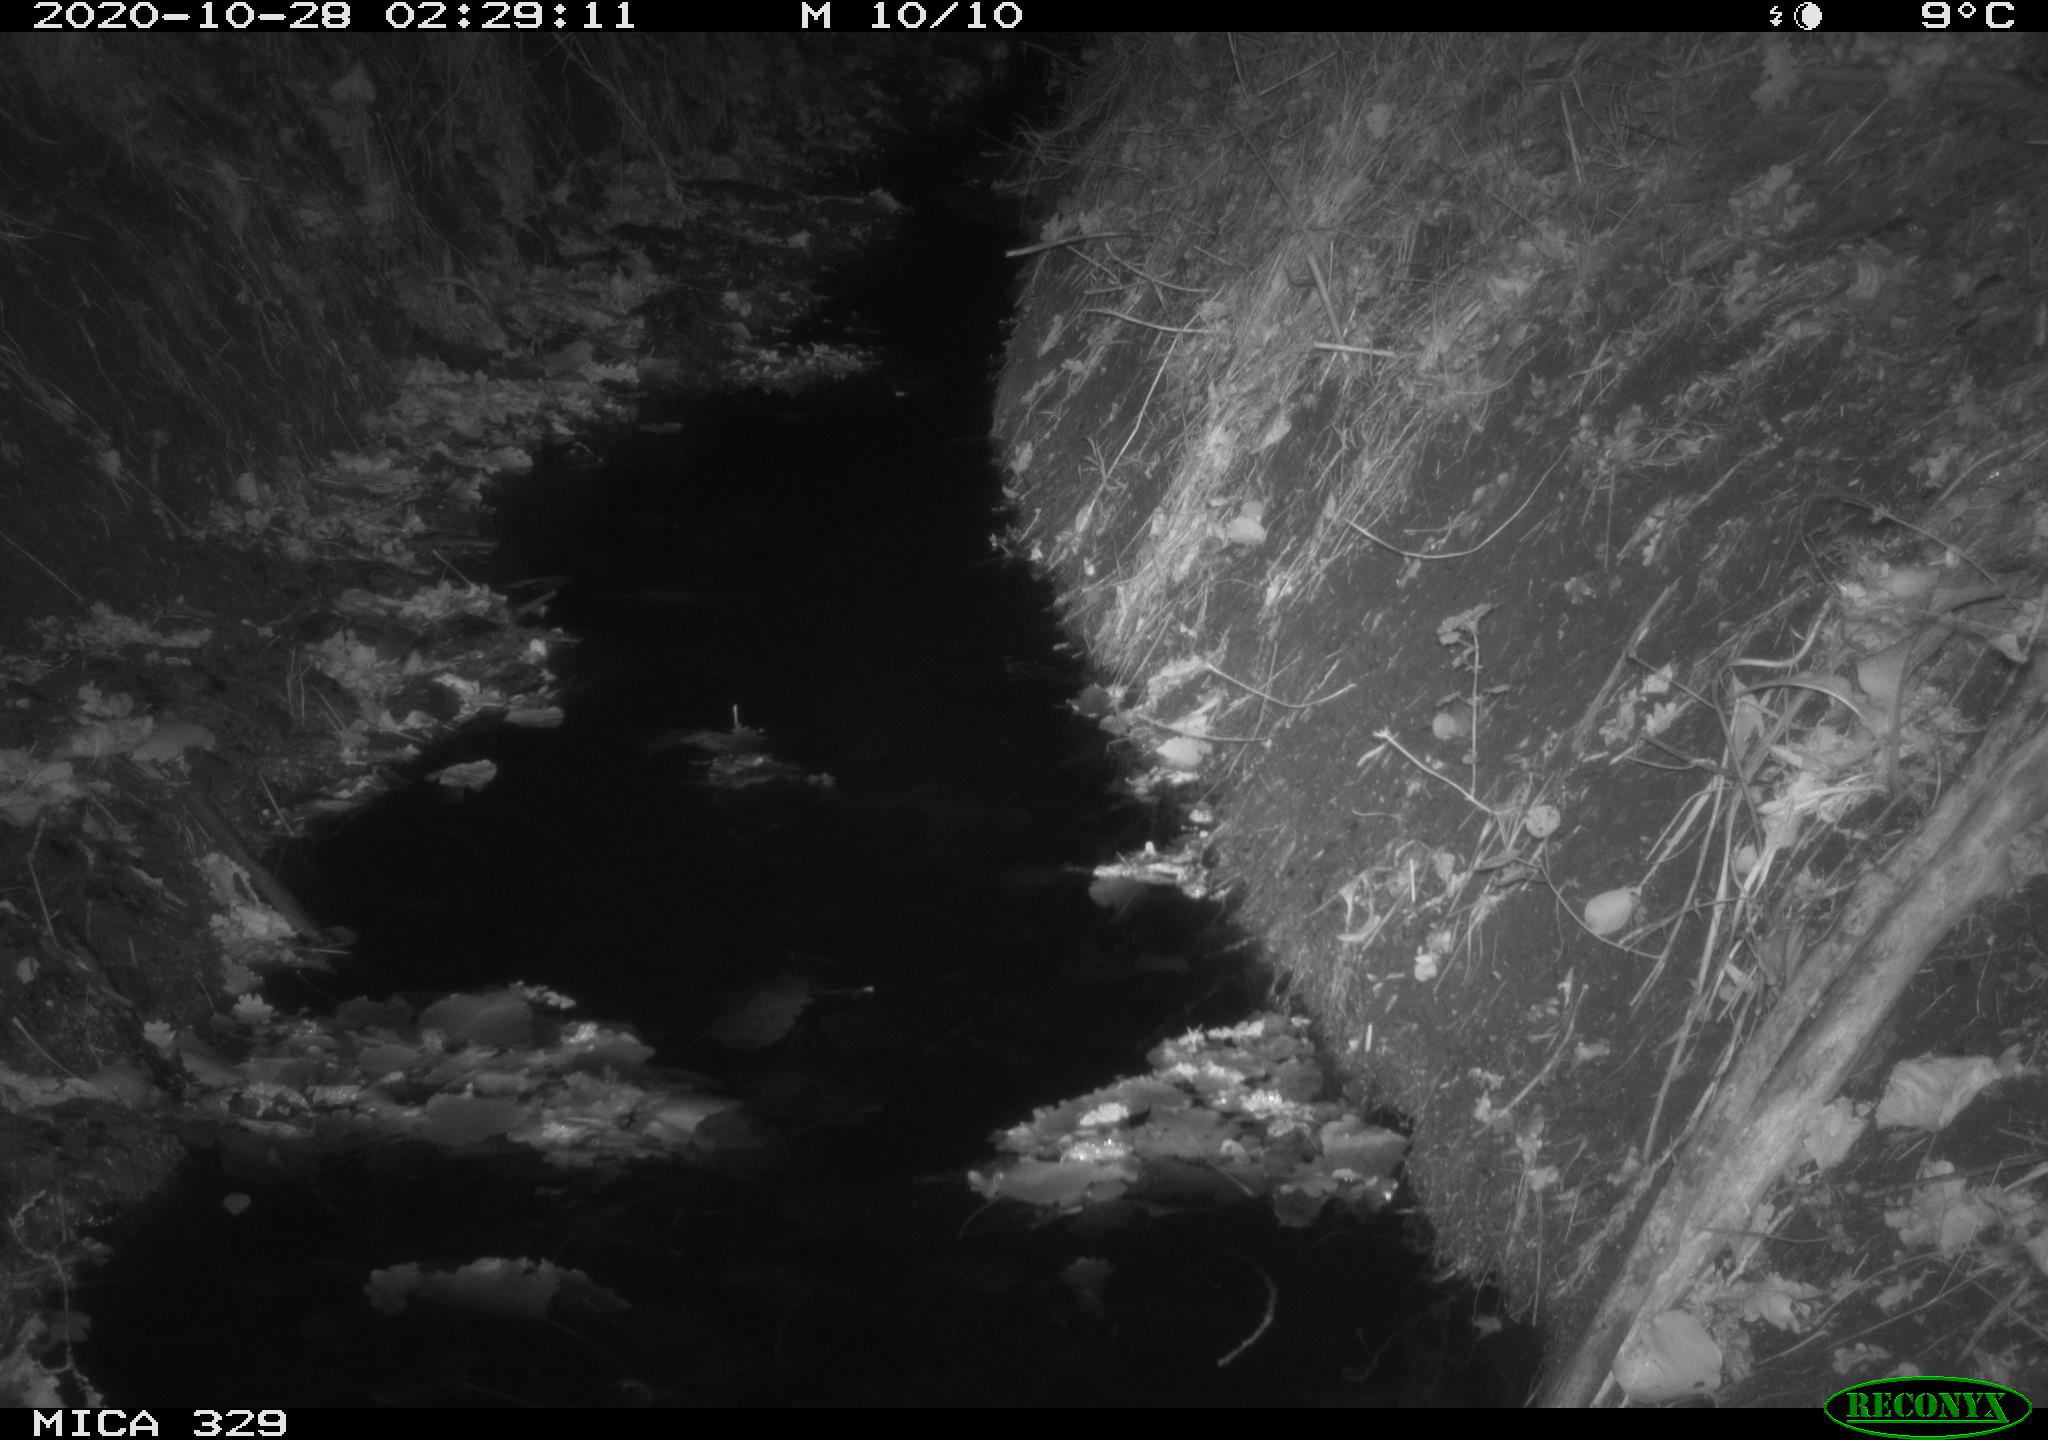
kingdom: Animalia
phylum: Chordata
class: Mammalia
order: Rodentia
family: Muridae
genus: Rattus
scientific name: Rattus norvegicus
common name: Brown rat
